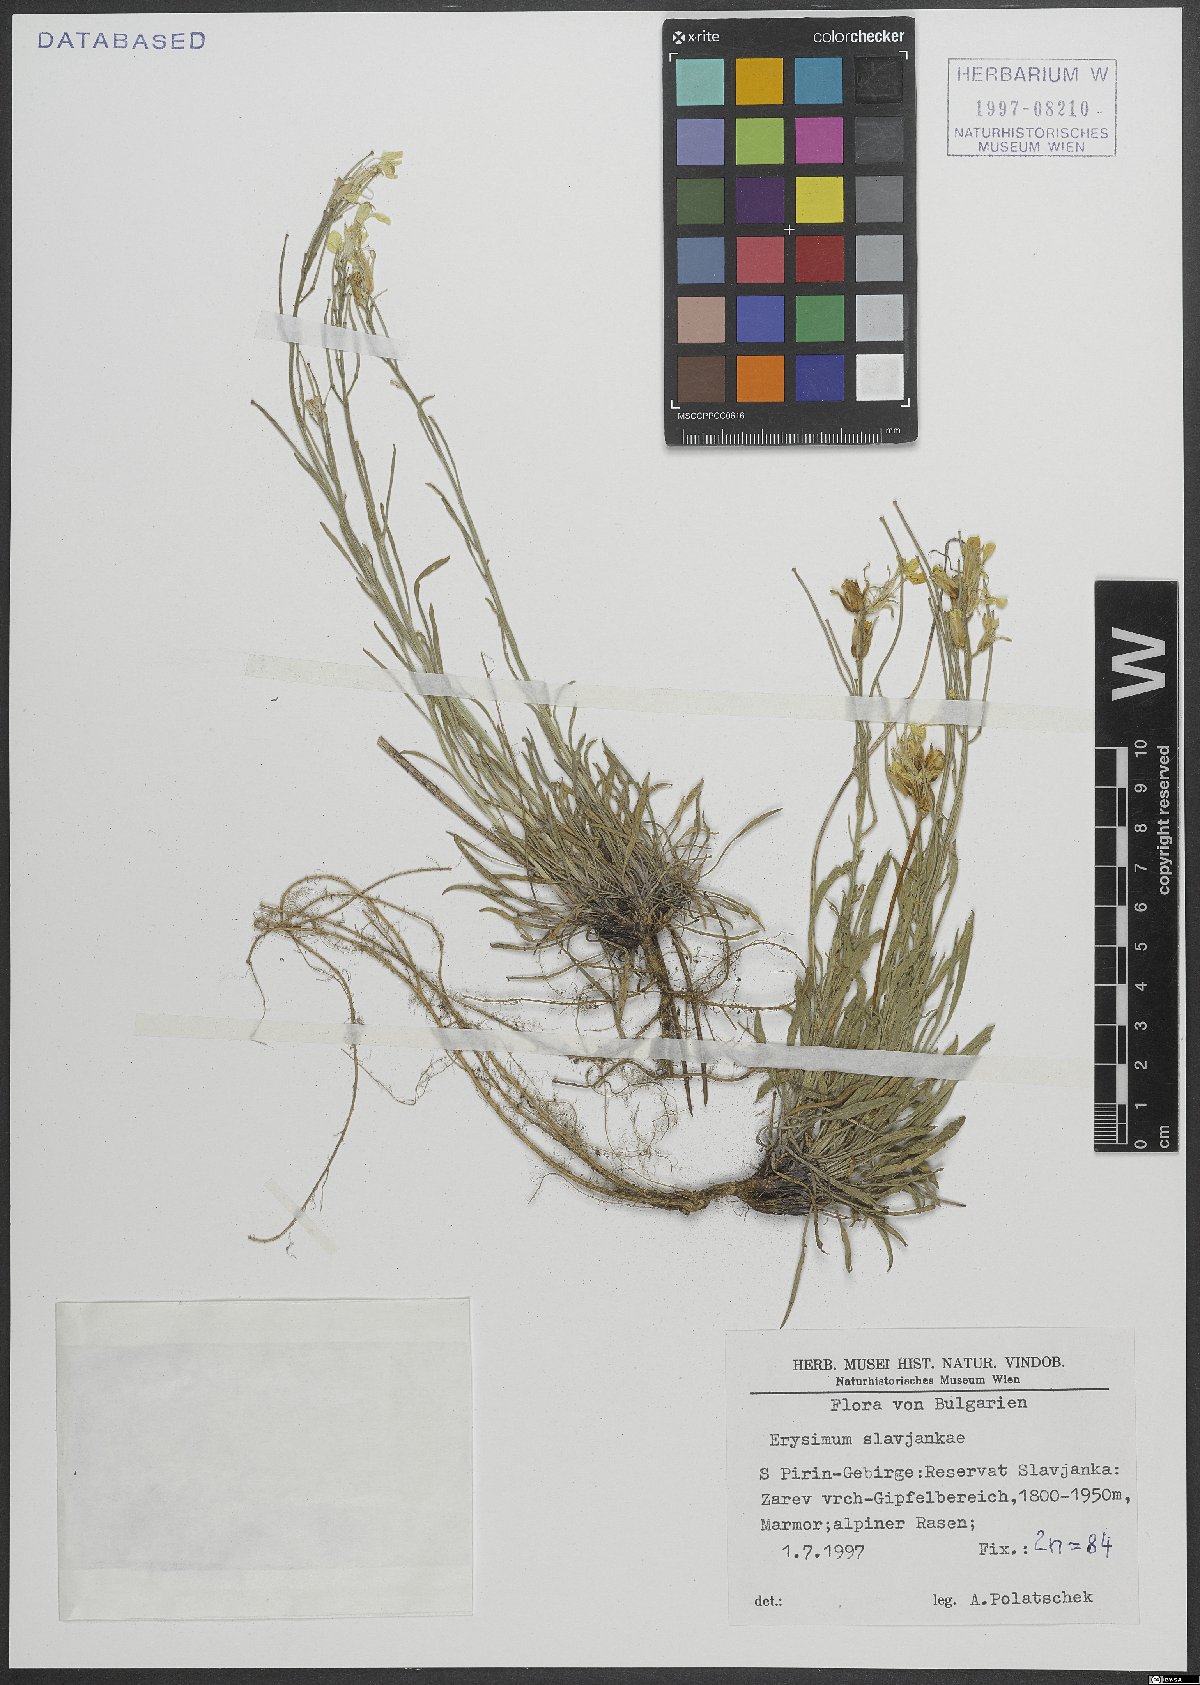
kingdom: Plantae
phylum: Tracheophyta
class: Magnoliopsida
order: Brassicales
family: Brassicaceae
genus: Erysimum
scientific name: Erysimum slavjankae
